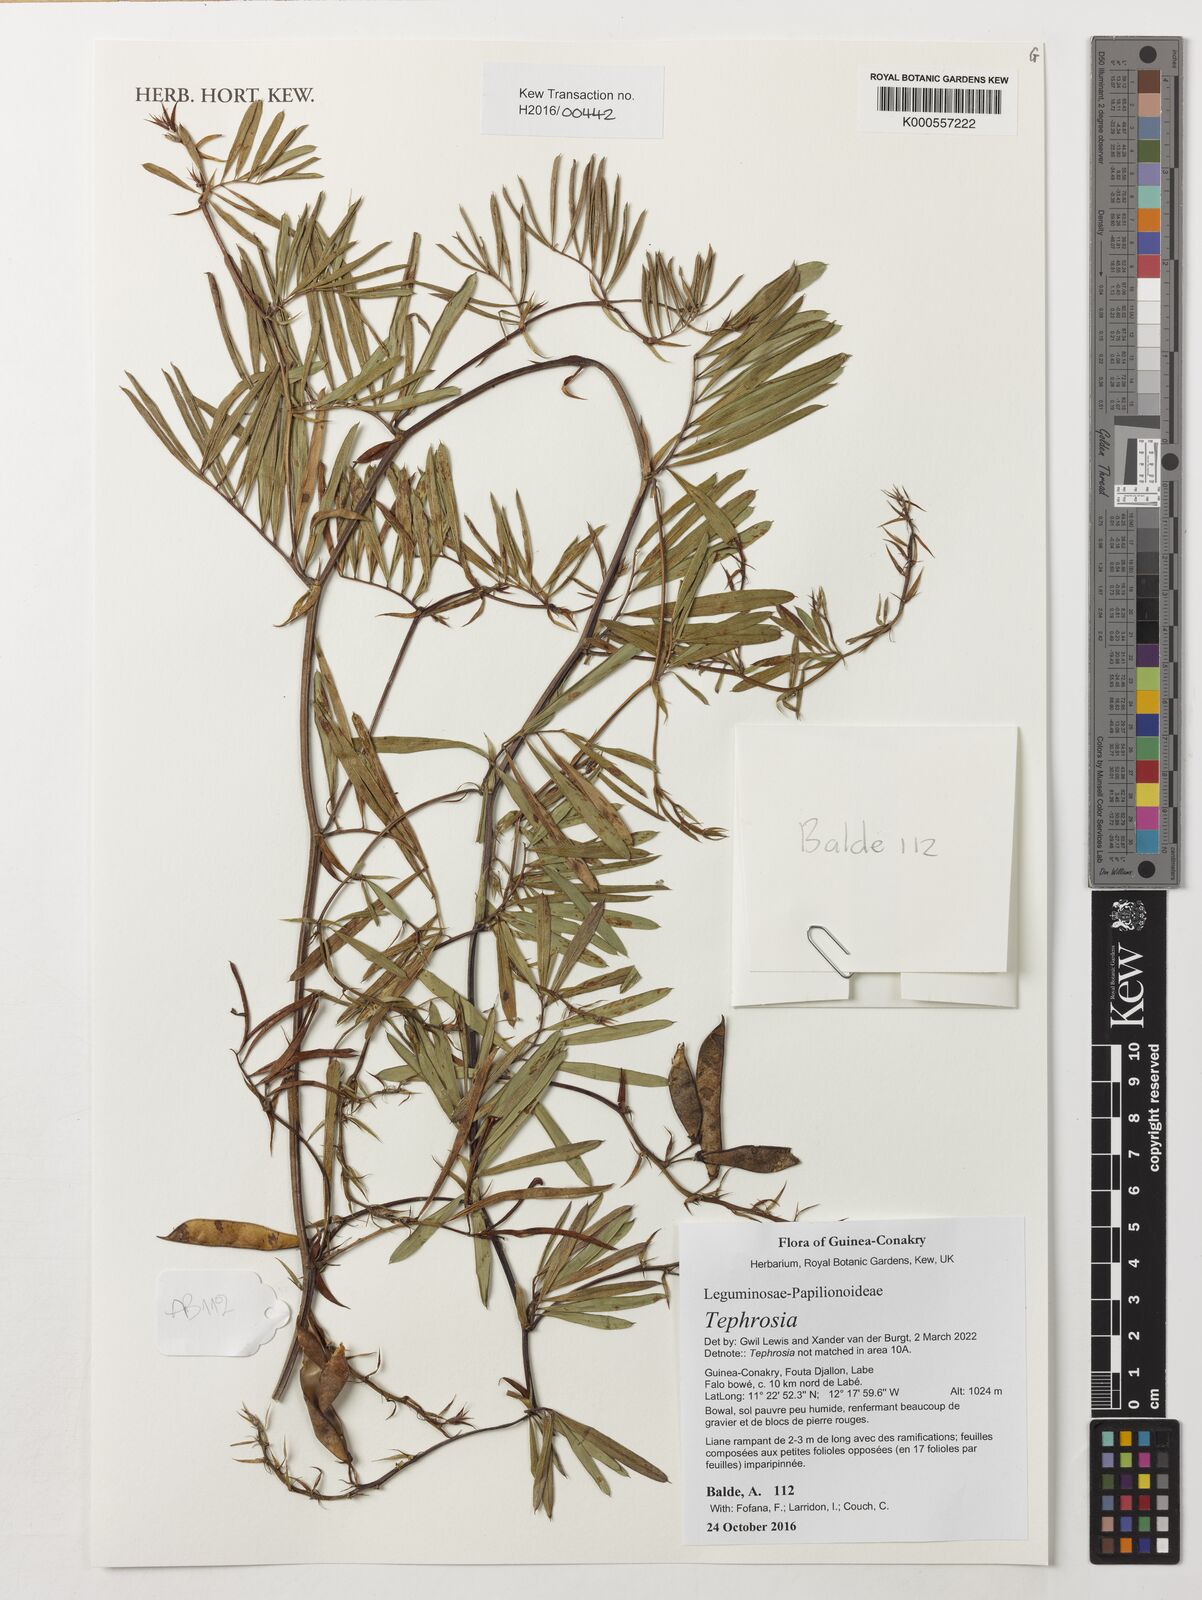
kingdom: Plantae
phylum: Tracheophyta
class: Magnoliopsida
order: Fabales
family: Fabaceae
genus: Tephrosia
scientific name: Tephrosia
